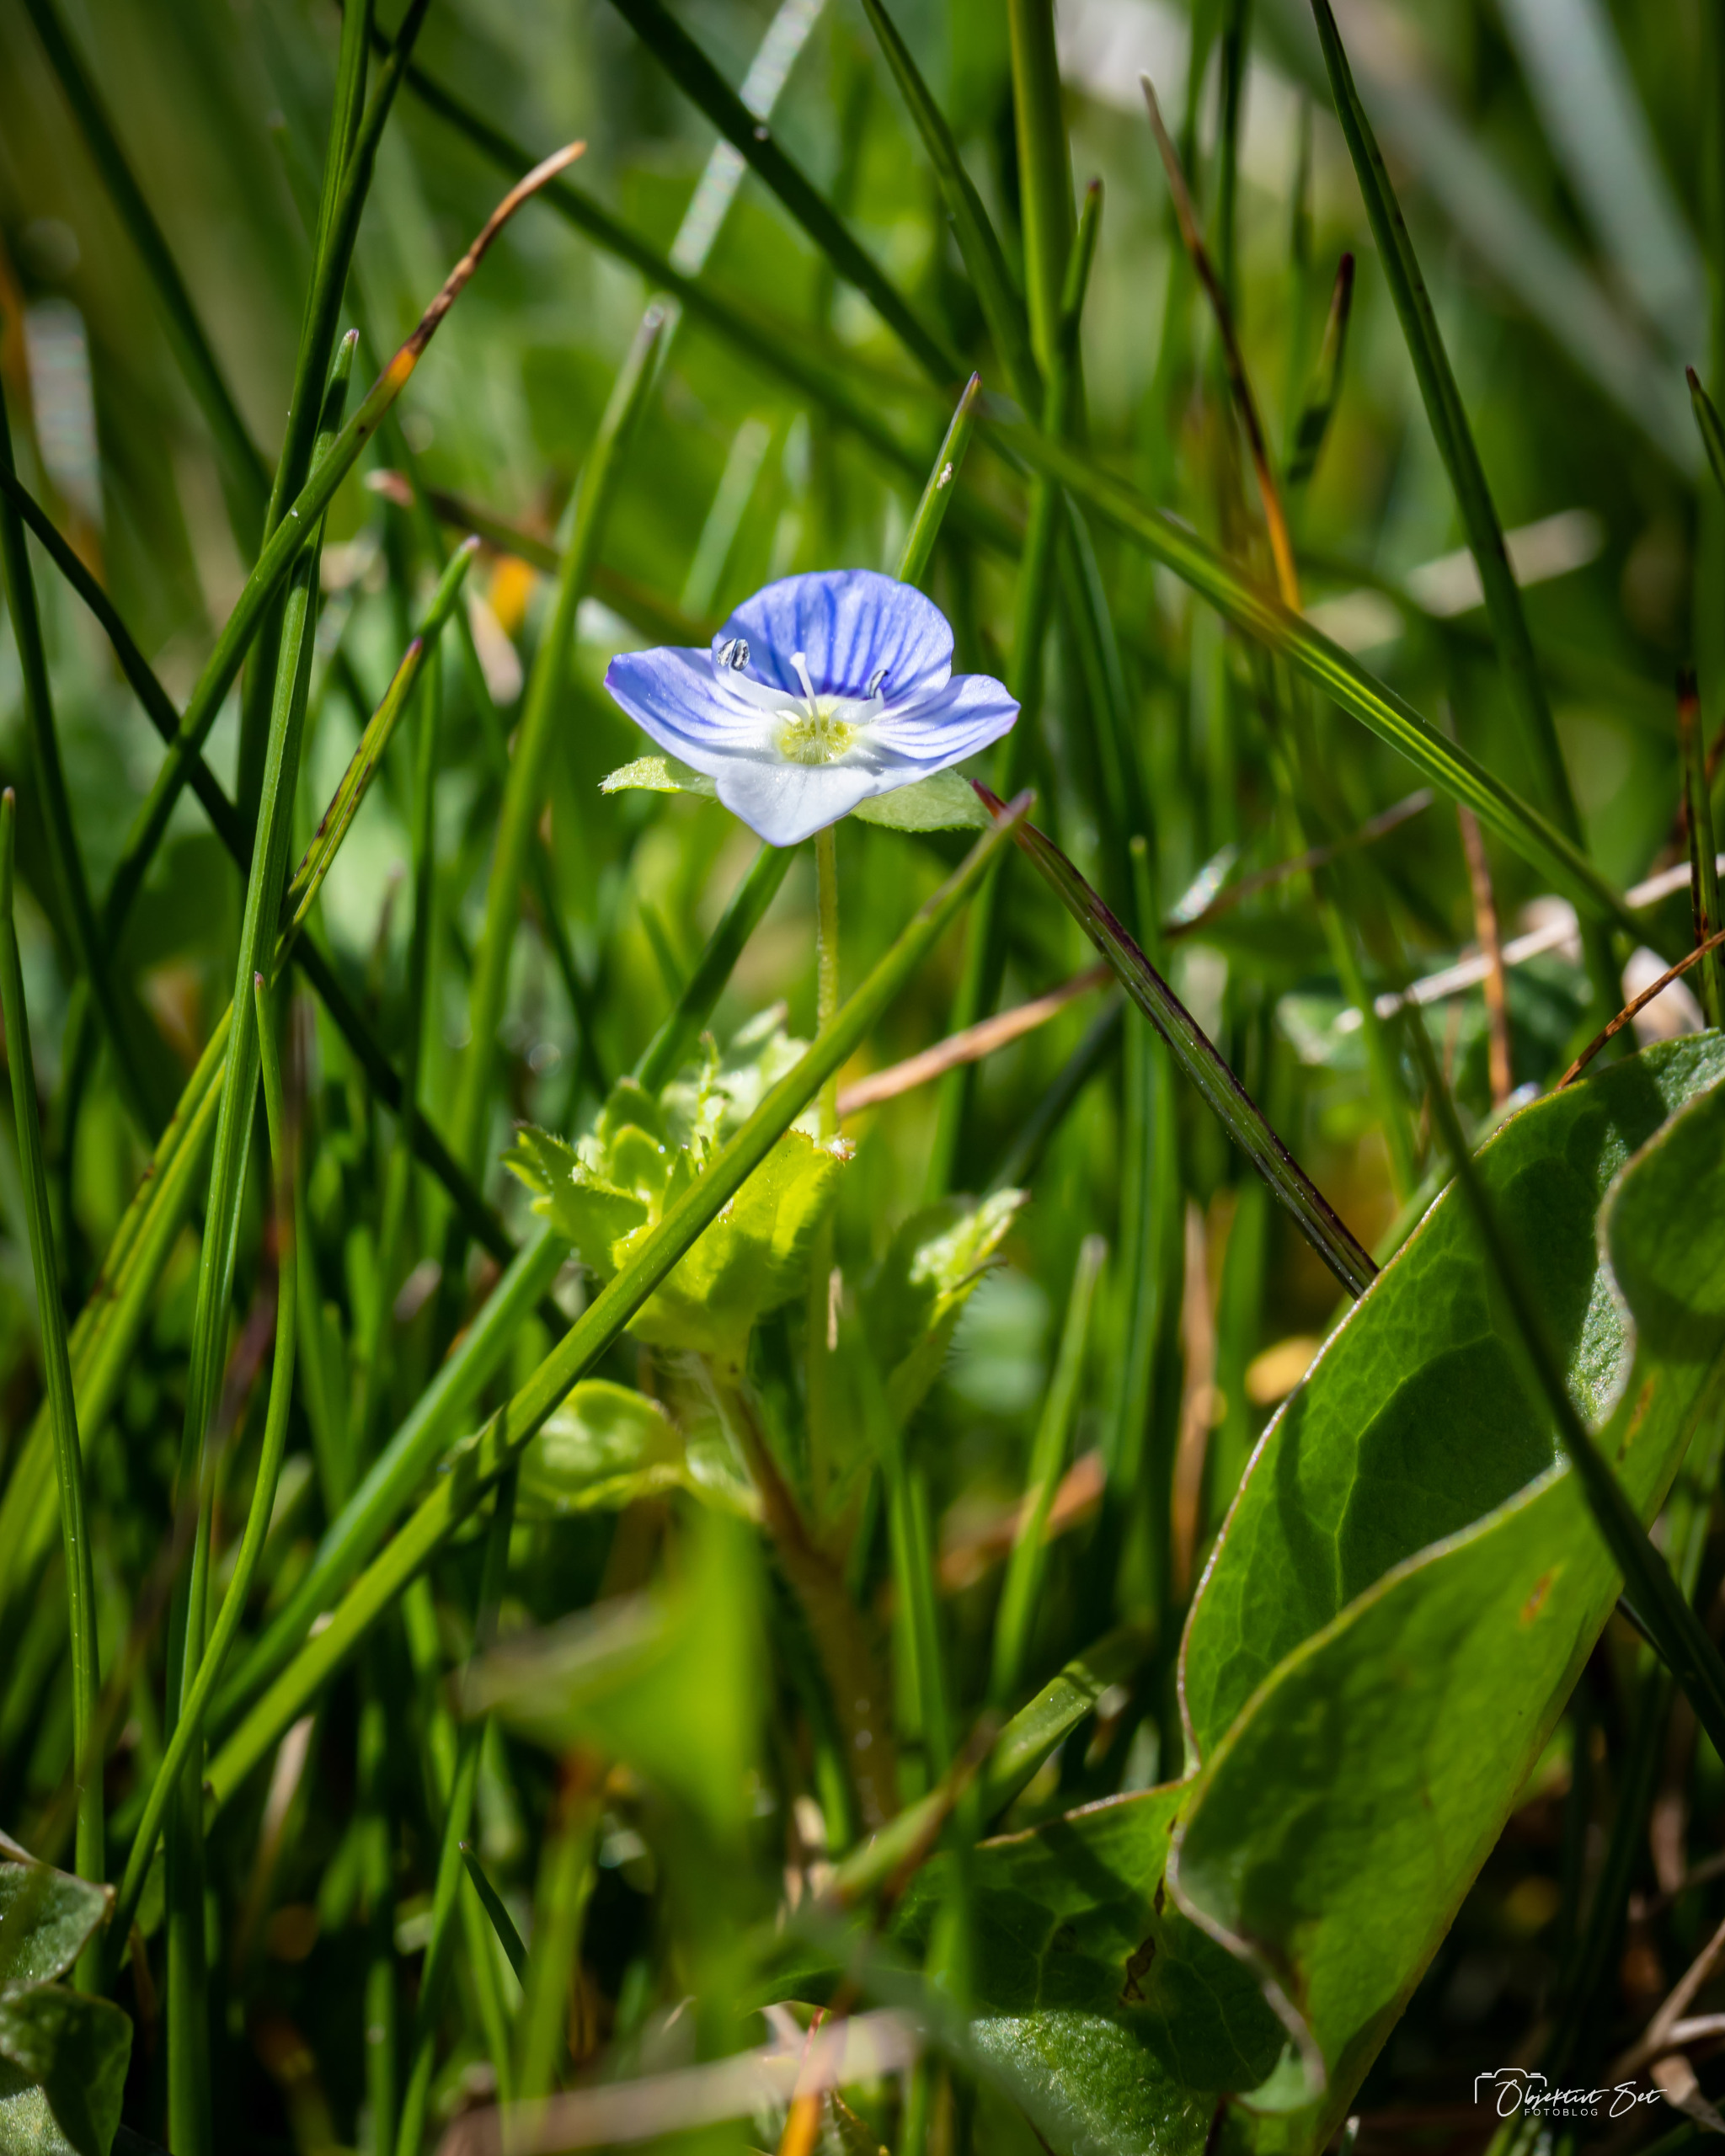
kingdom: Plantae
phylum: Tracheophyta
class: Magnoliopsida
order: Lamiales
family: Plantaginaceae
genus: Veronica
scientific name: Veronica persica
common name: Storkronet ærenpris
